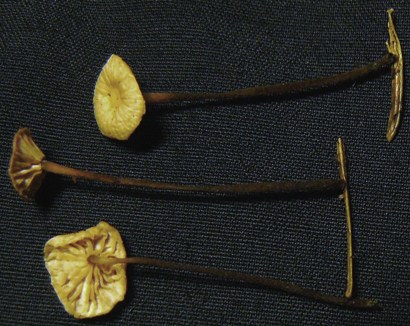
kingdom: Fungi
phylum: Basidiomycota
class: Agaricomycetes
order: Agaricales
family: Omphalotaceae
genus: Paragymnopus
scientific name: Paragymnopus perforans
